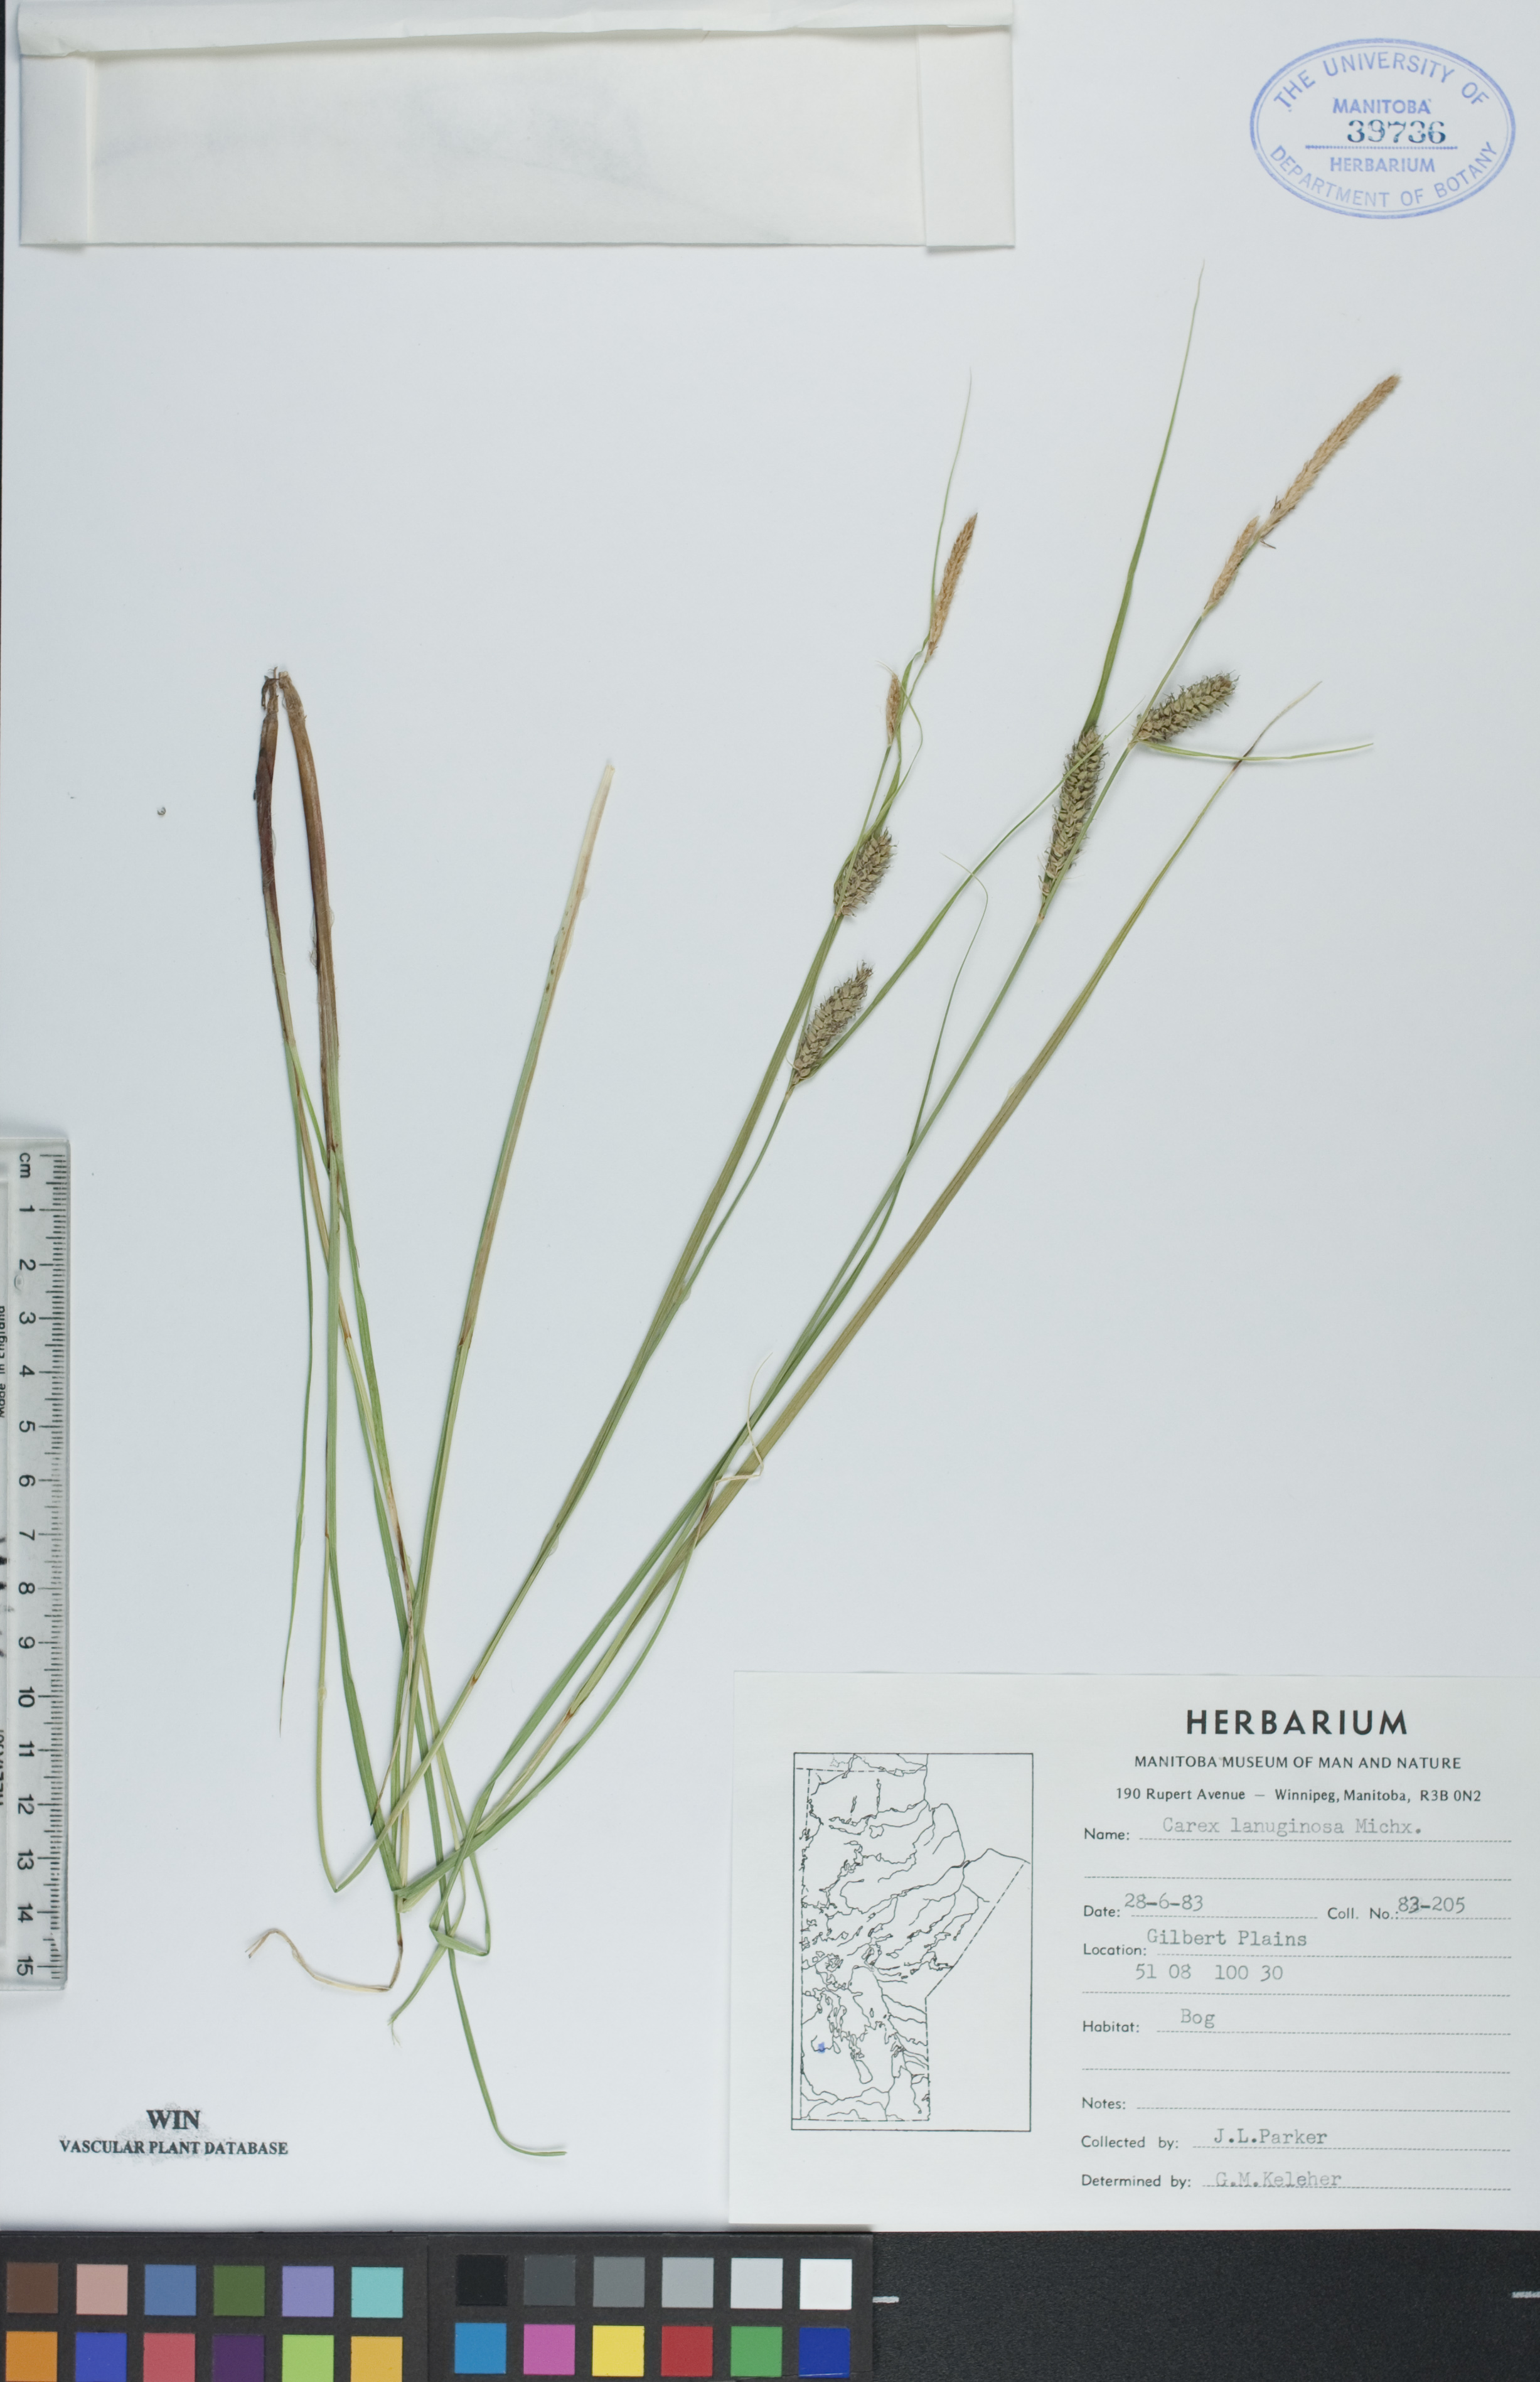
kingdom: Plantae
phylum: Tracheophyta
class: Liliopsida
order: Poales
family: Cyperaceae
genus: Carex
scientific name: Carex lasiocarpa
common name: Slender sedge
